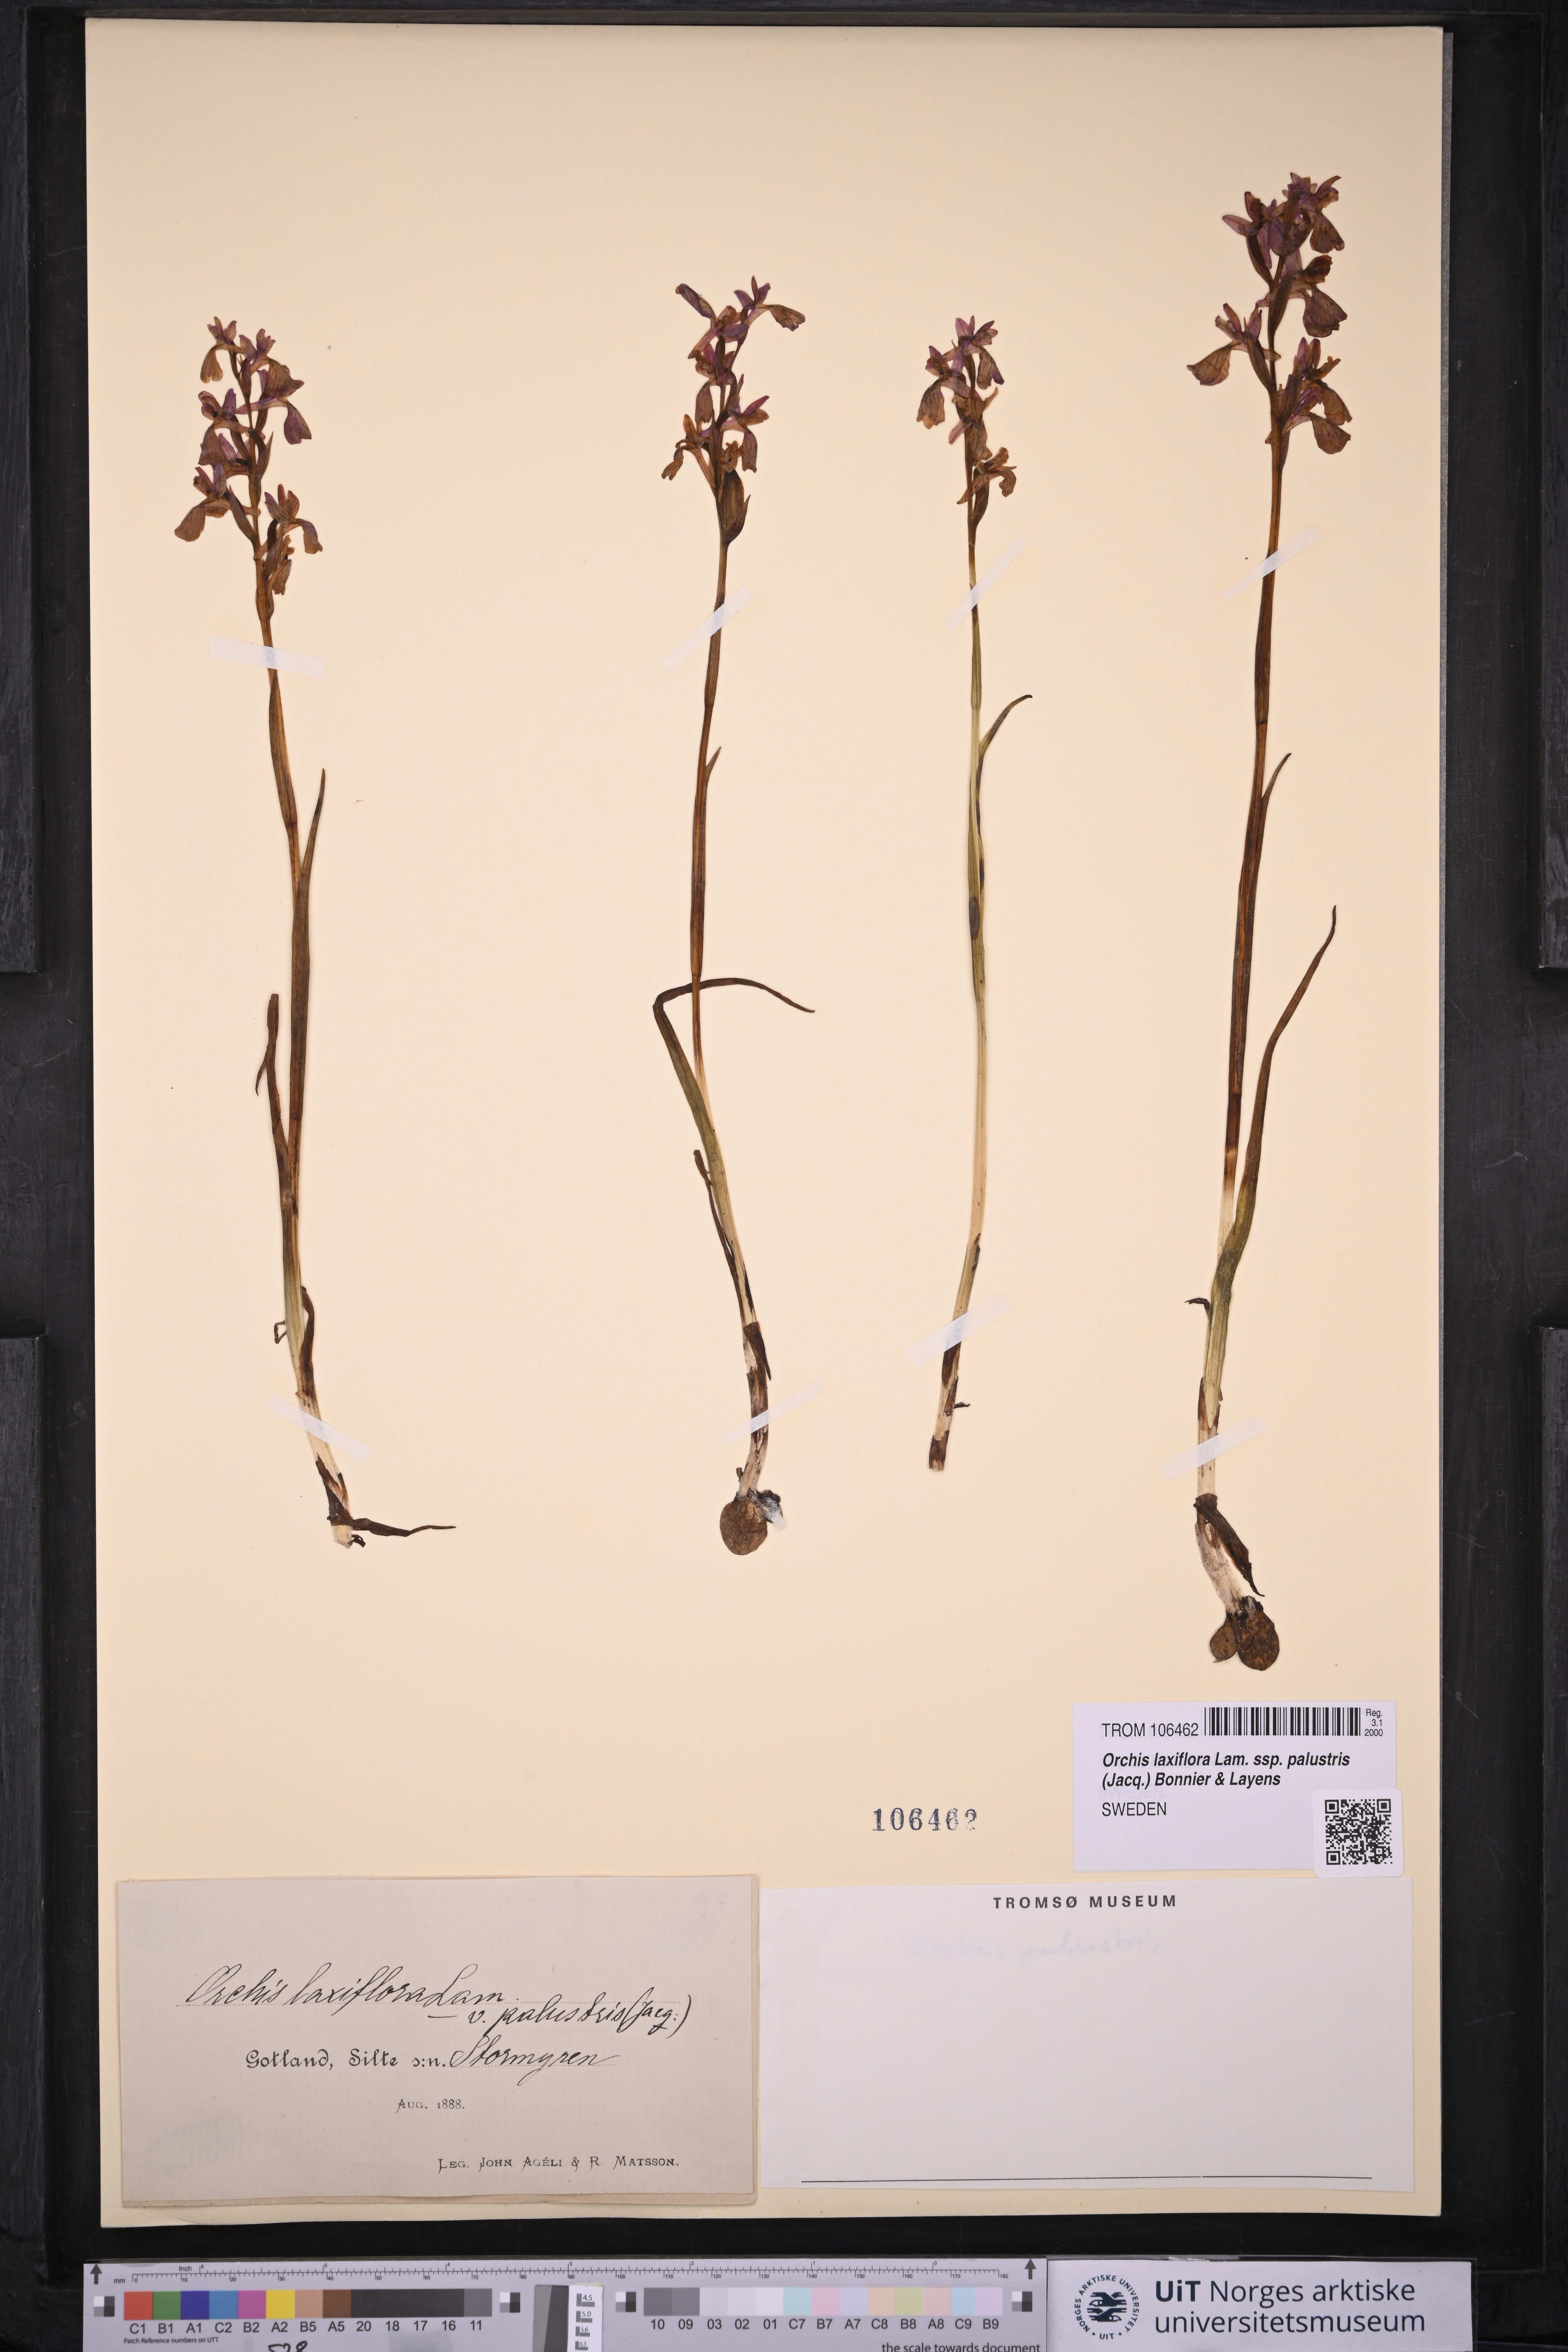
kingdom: Plantae
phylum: Tracheophyta
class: Liliopsida
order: Asparagales
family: Orchidaceae
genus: Anacamptis
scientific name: Anacamptis palustris
